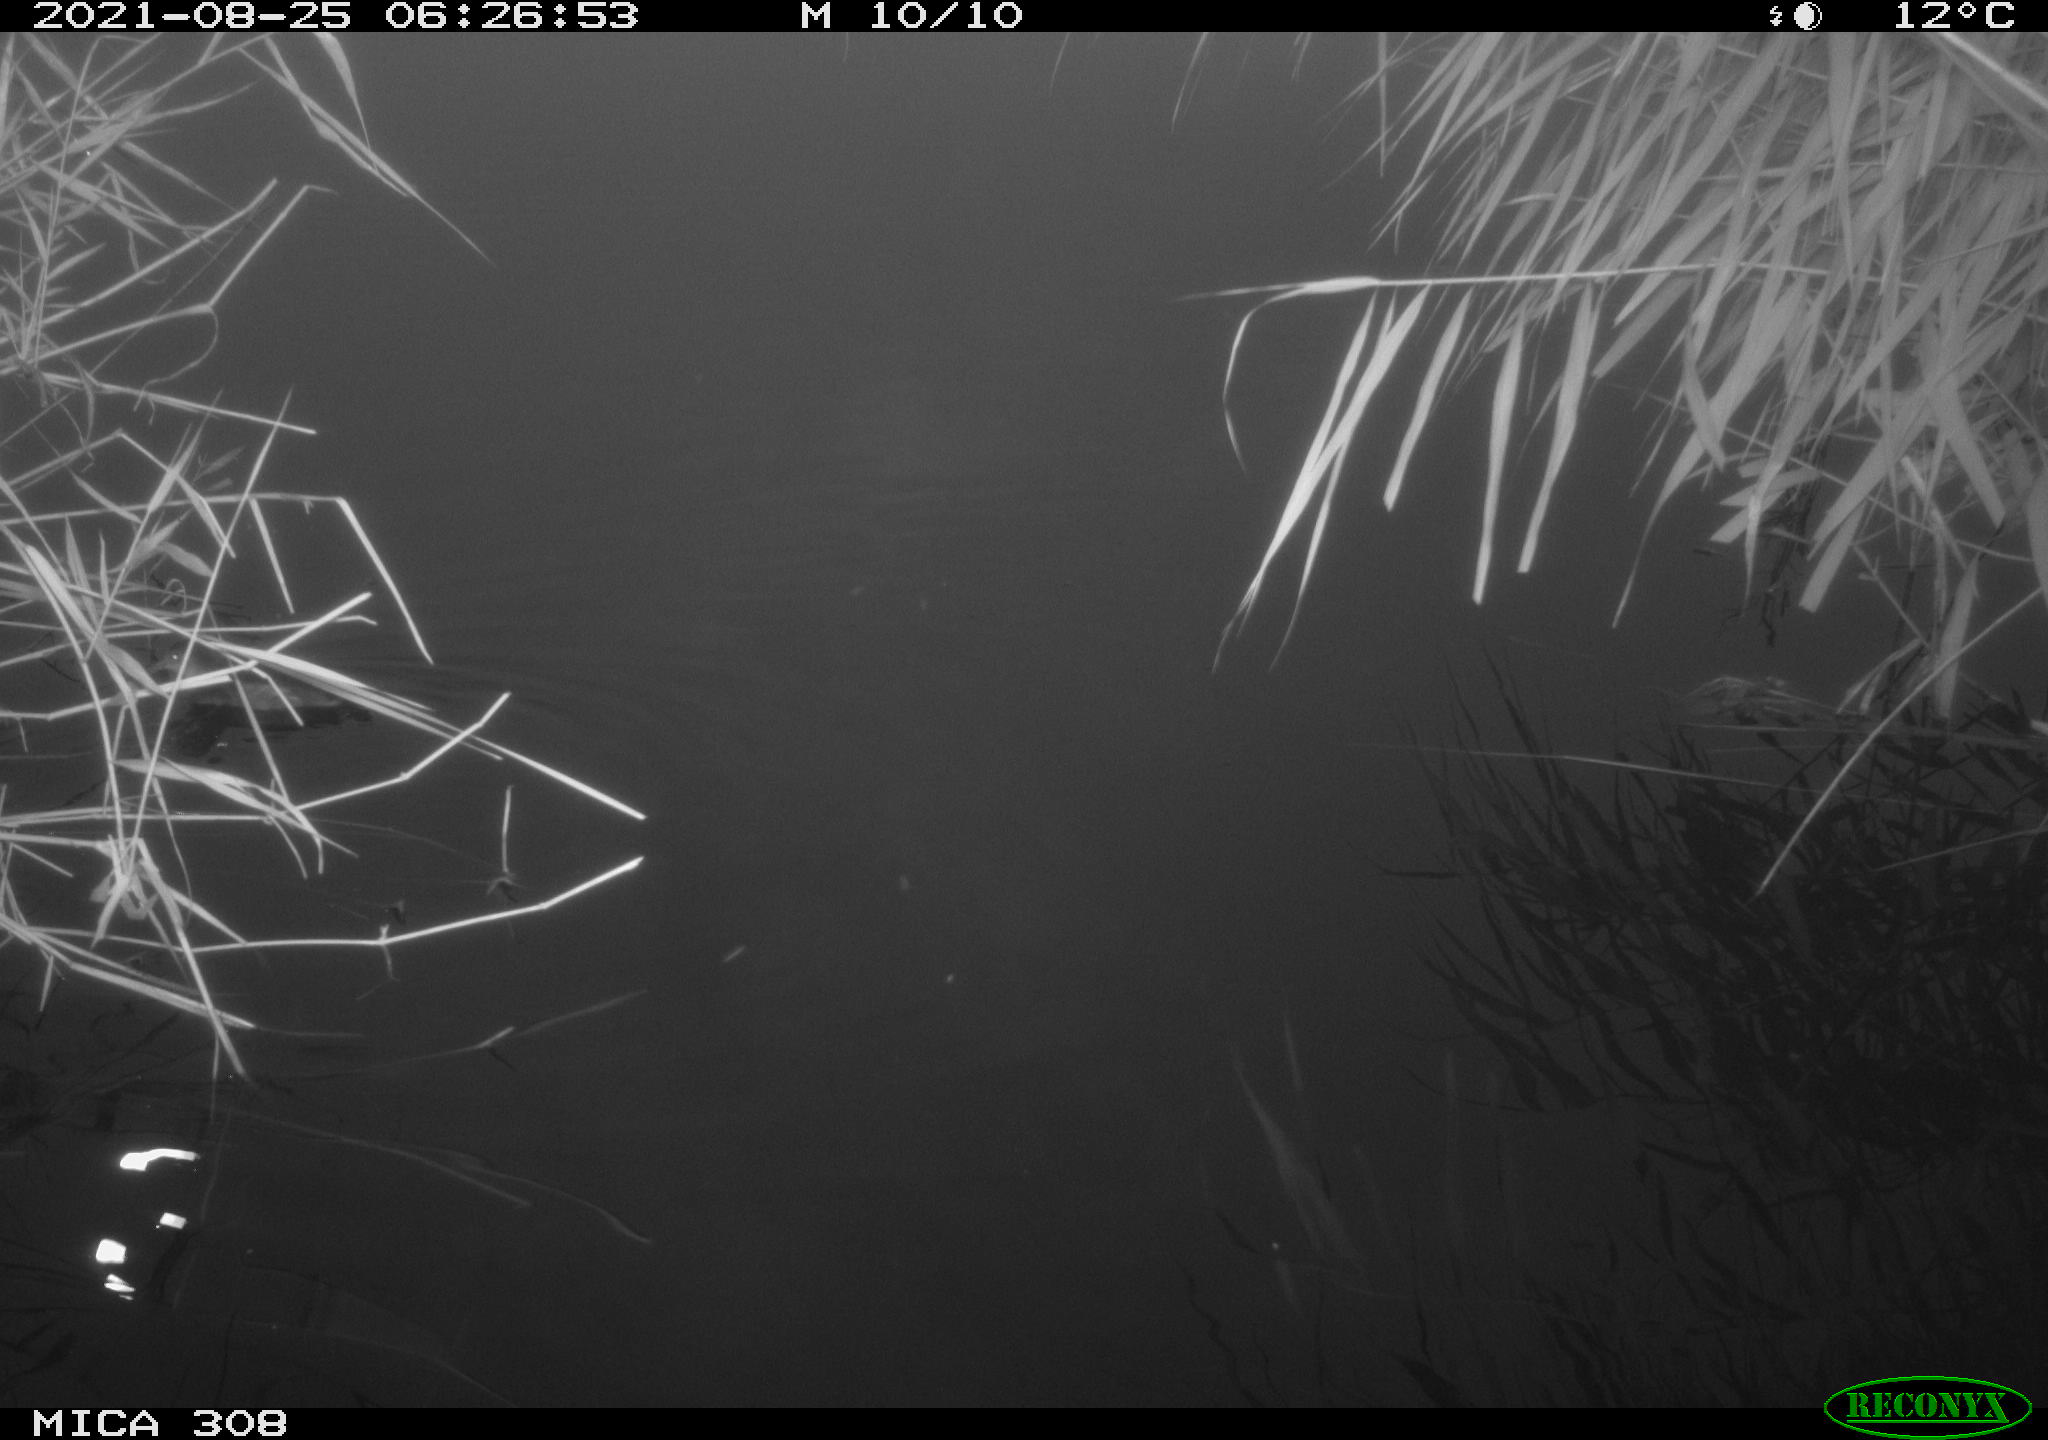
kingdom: Animalia
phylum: Chordata
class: Aves
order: Gruiformes
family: Rallidae
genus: Gallinula
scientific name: Gallinula chloropus
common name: Common moorhen
